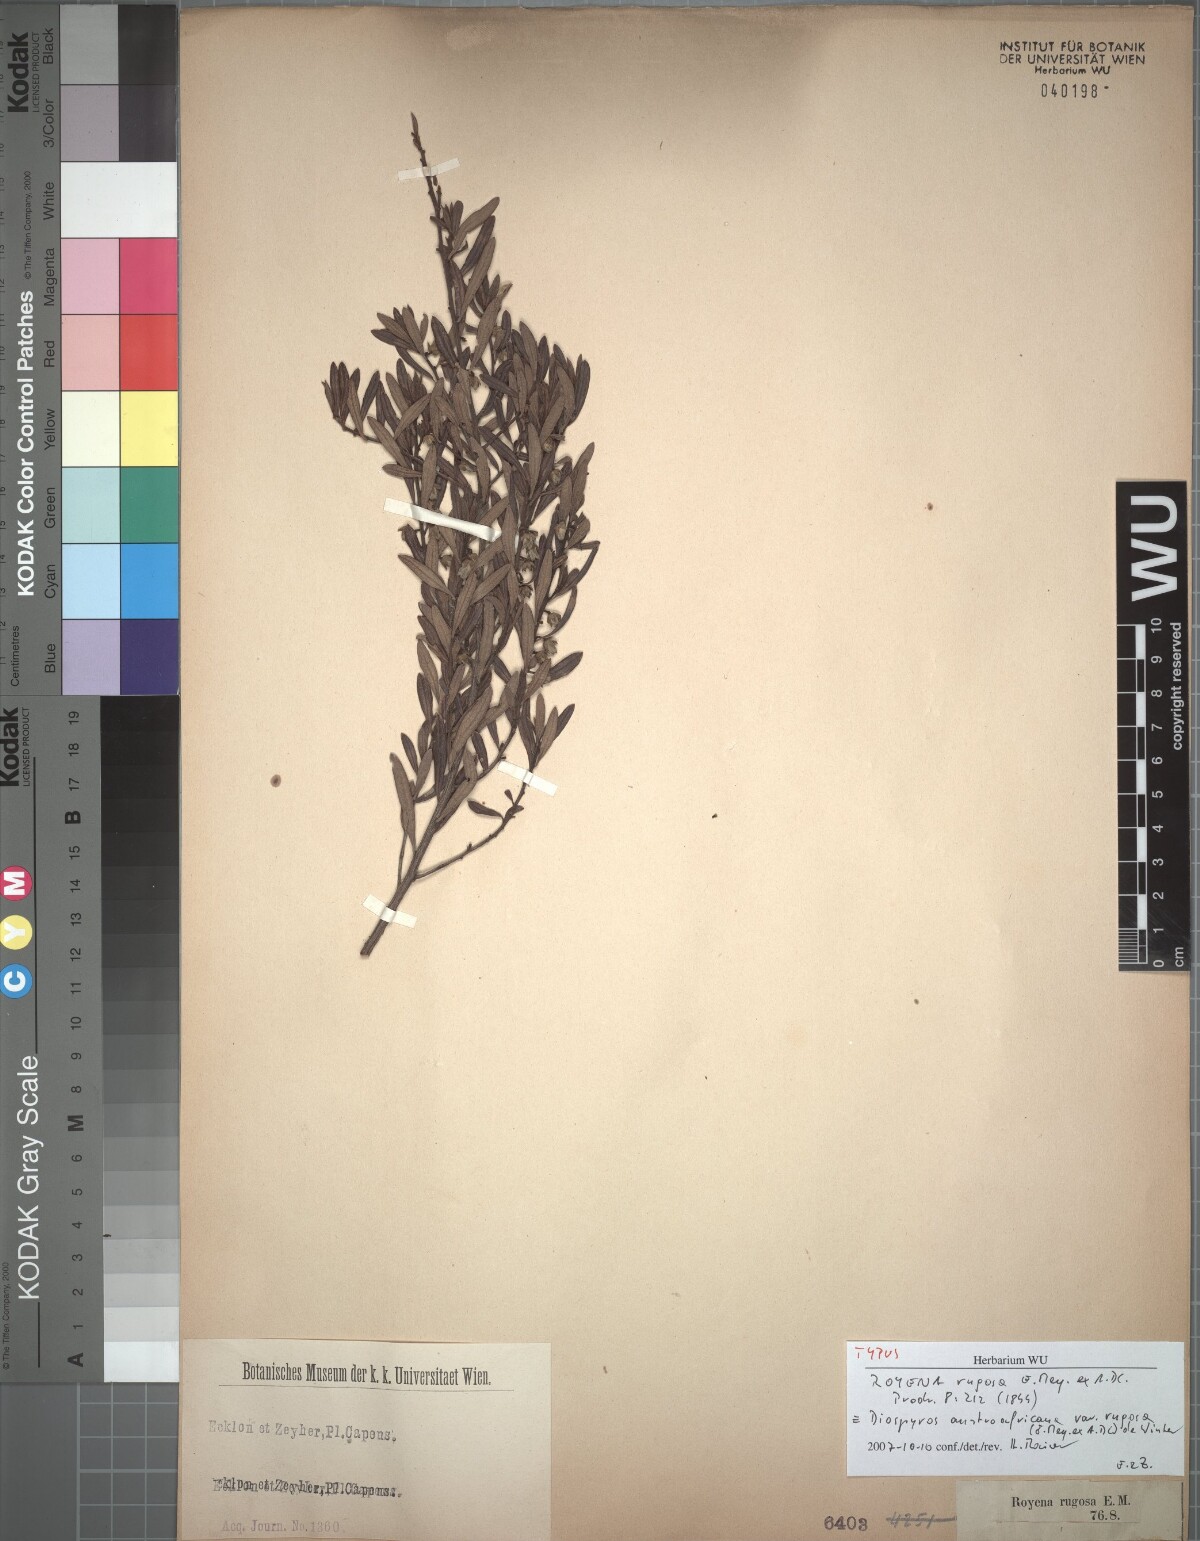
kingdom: Plantae
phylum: Tracheophyta
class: Magnoliopsida
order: Ericales
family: Ebenaceae
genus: Diospyros
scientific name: Diospyros pubescens
